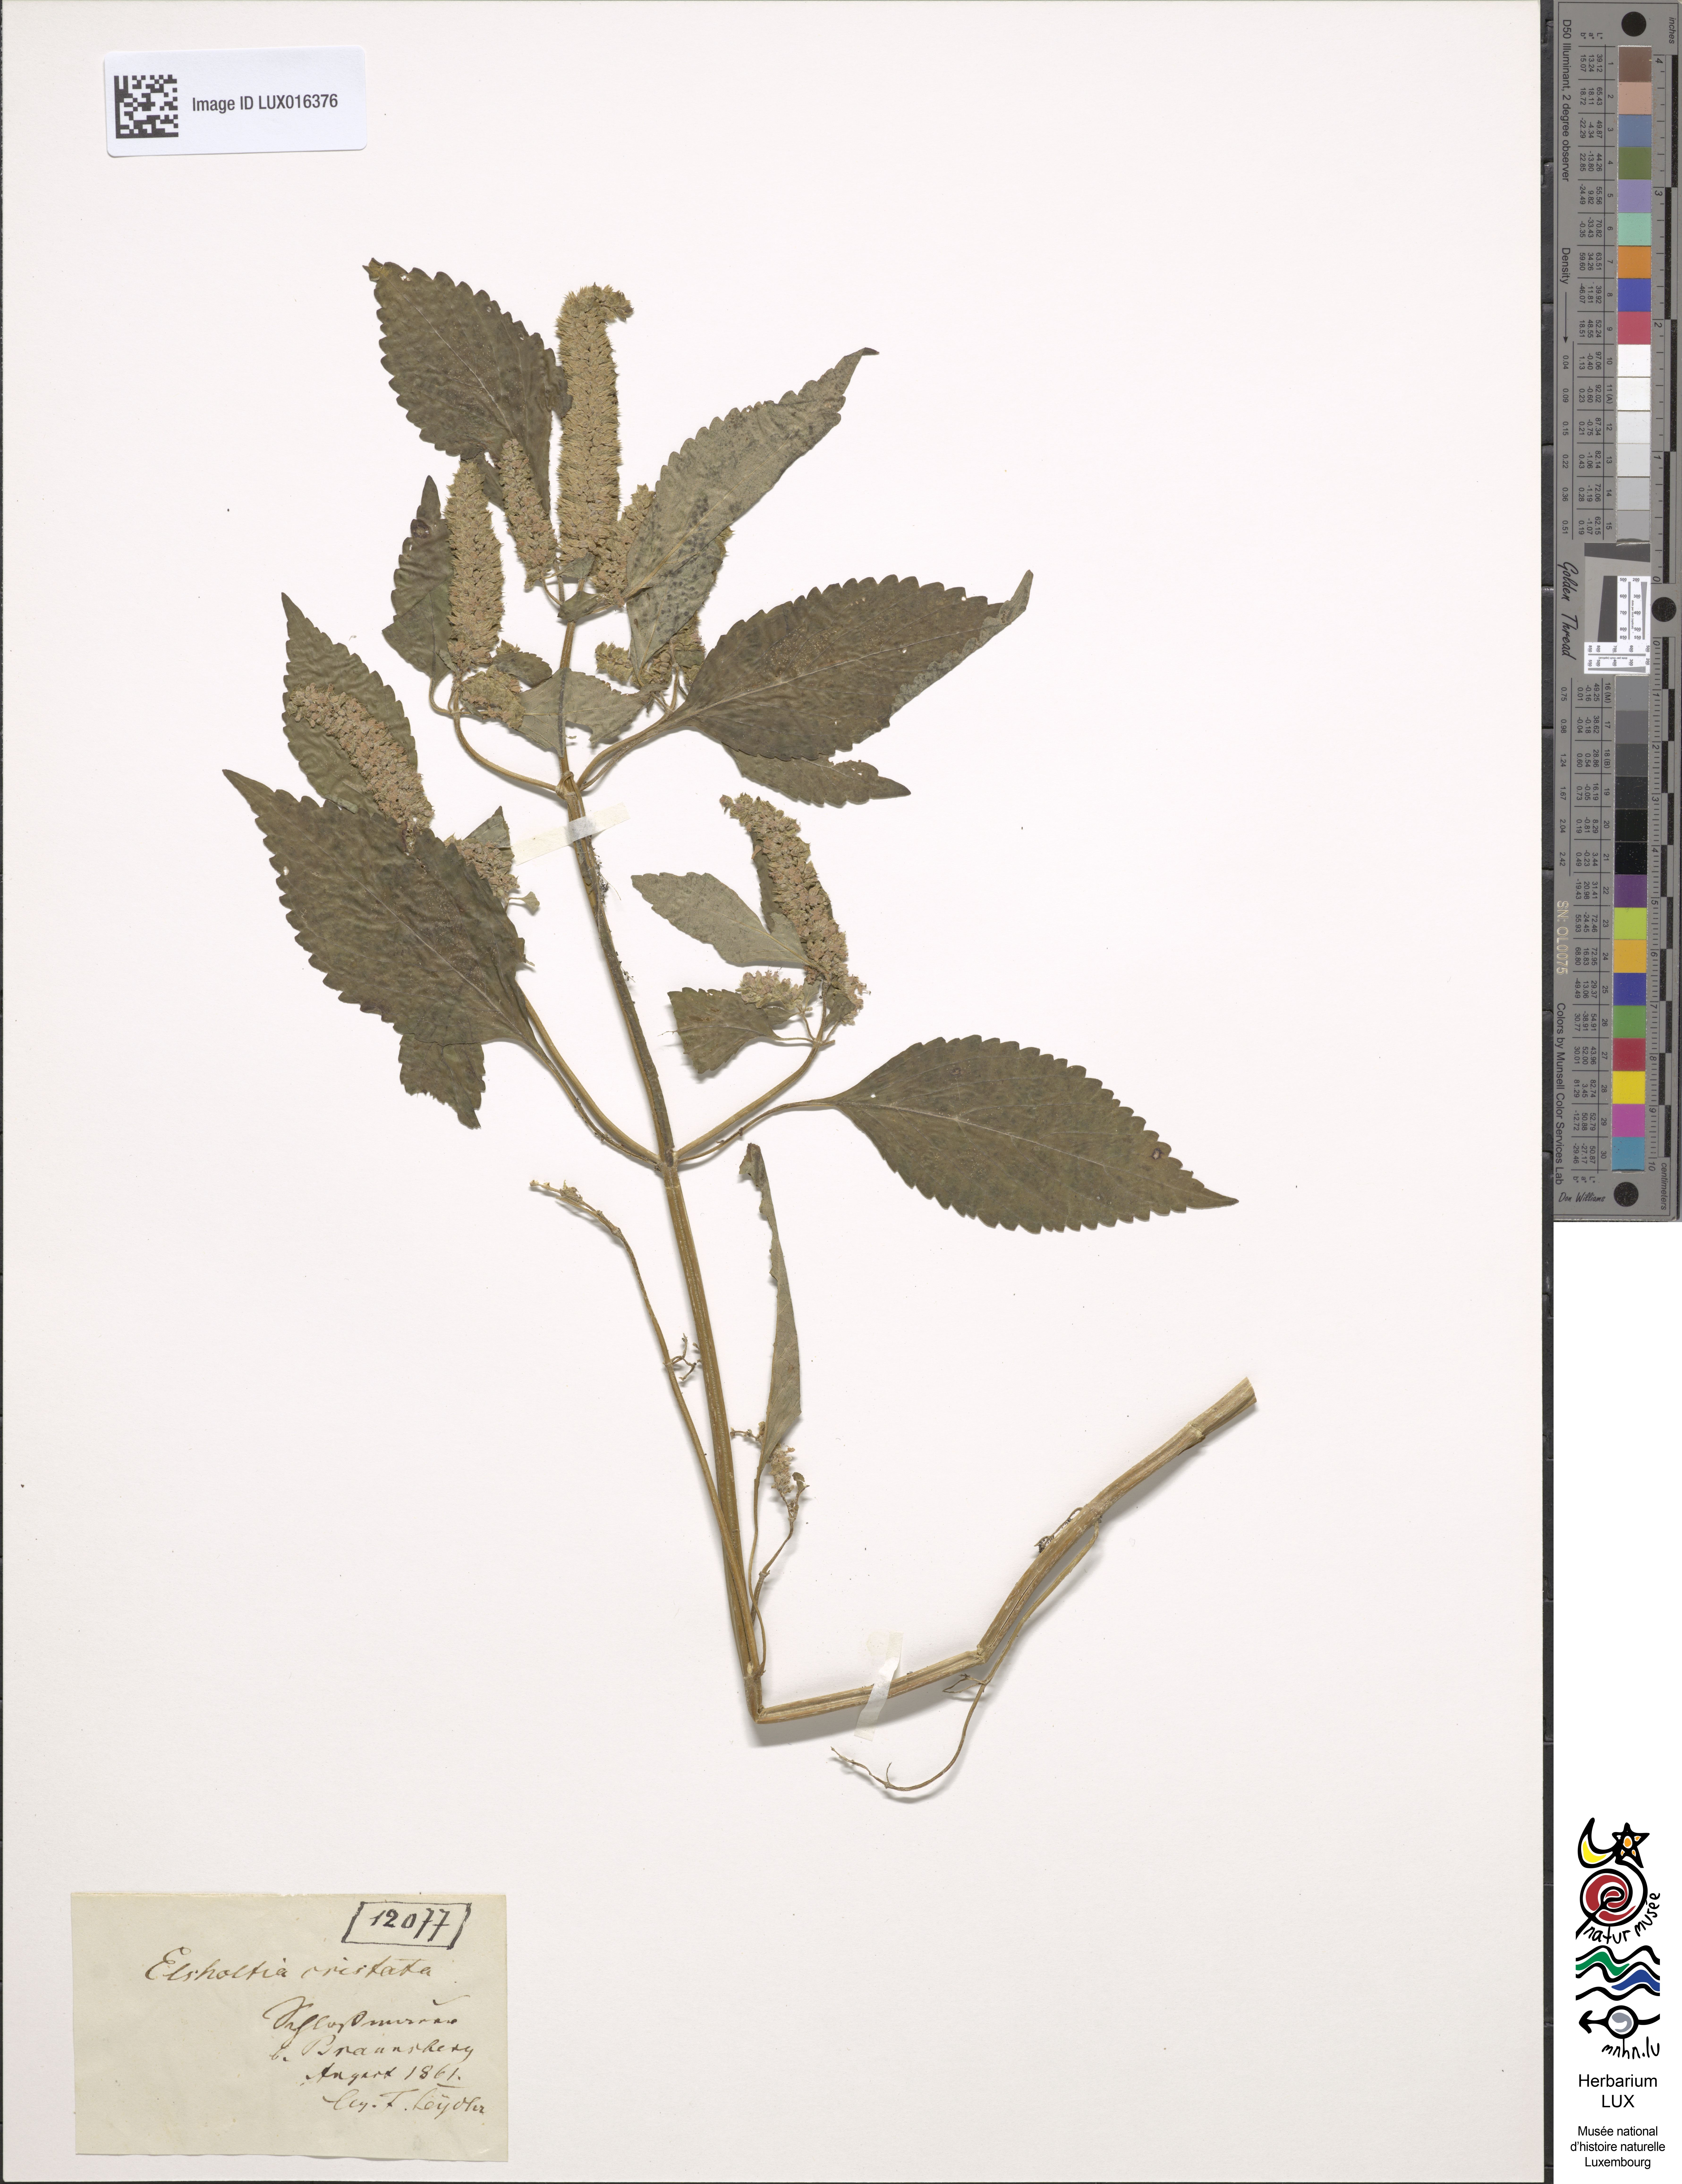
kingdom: Plantae
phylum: Tracheophyta
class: Magnoliopsida
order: Lamiales
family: Lamiaceae
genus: Elsholtzia
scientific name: Elsholtzia ciliata
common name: Ciliate elsholtzia
